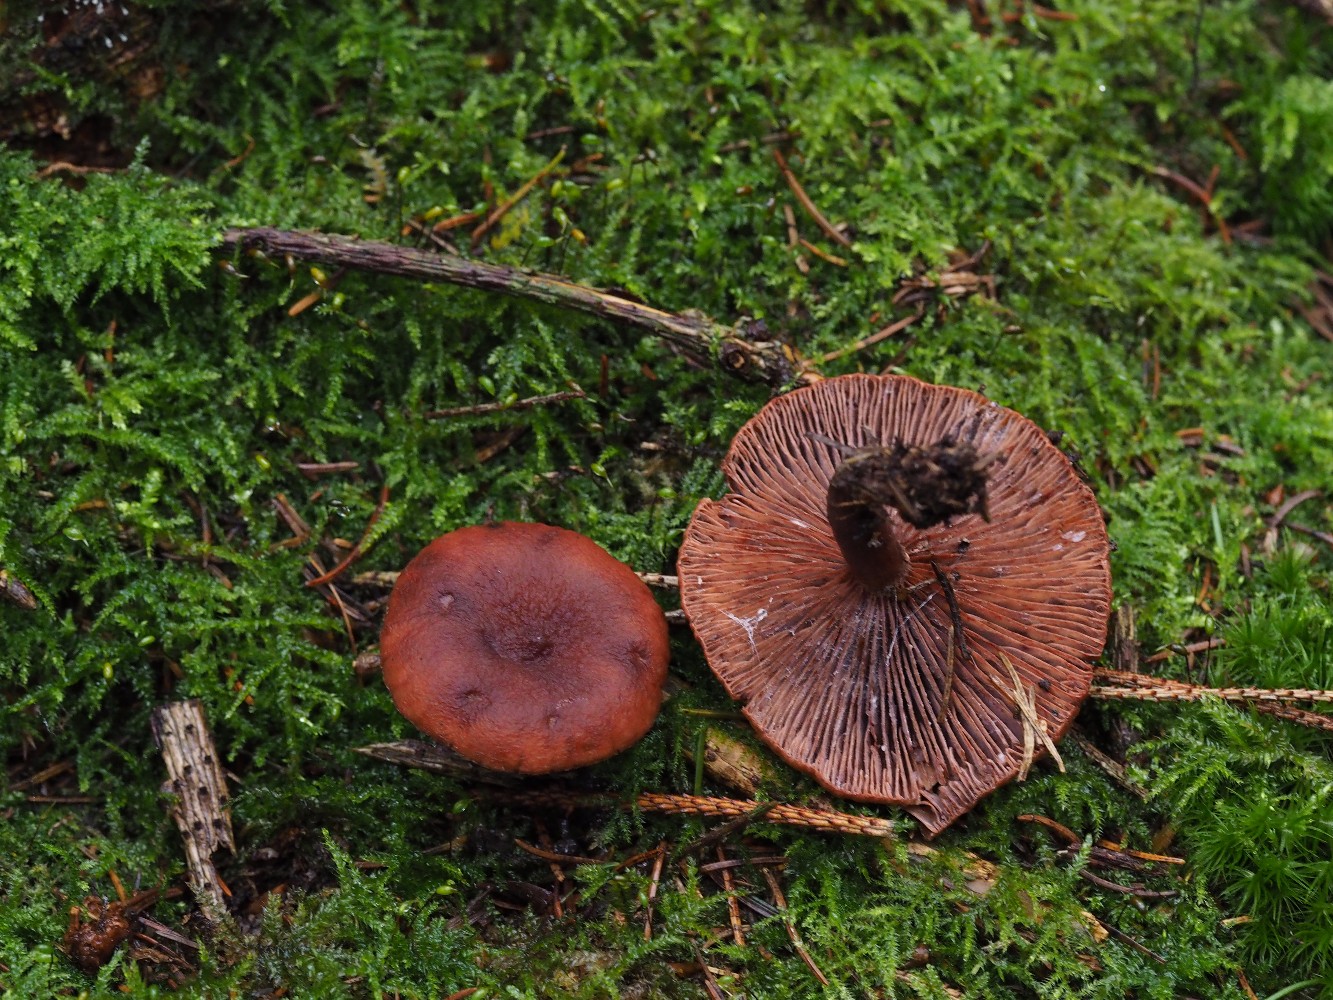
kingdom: Fungi
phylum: Basidiomycota
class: Agaricomycetes
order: Russulales
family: Russulaceae
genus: Lactarius
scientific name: Lactarius camphoratus
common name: kamfer-mælkehat
